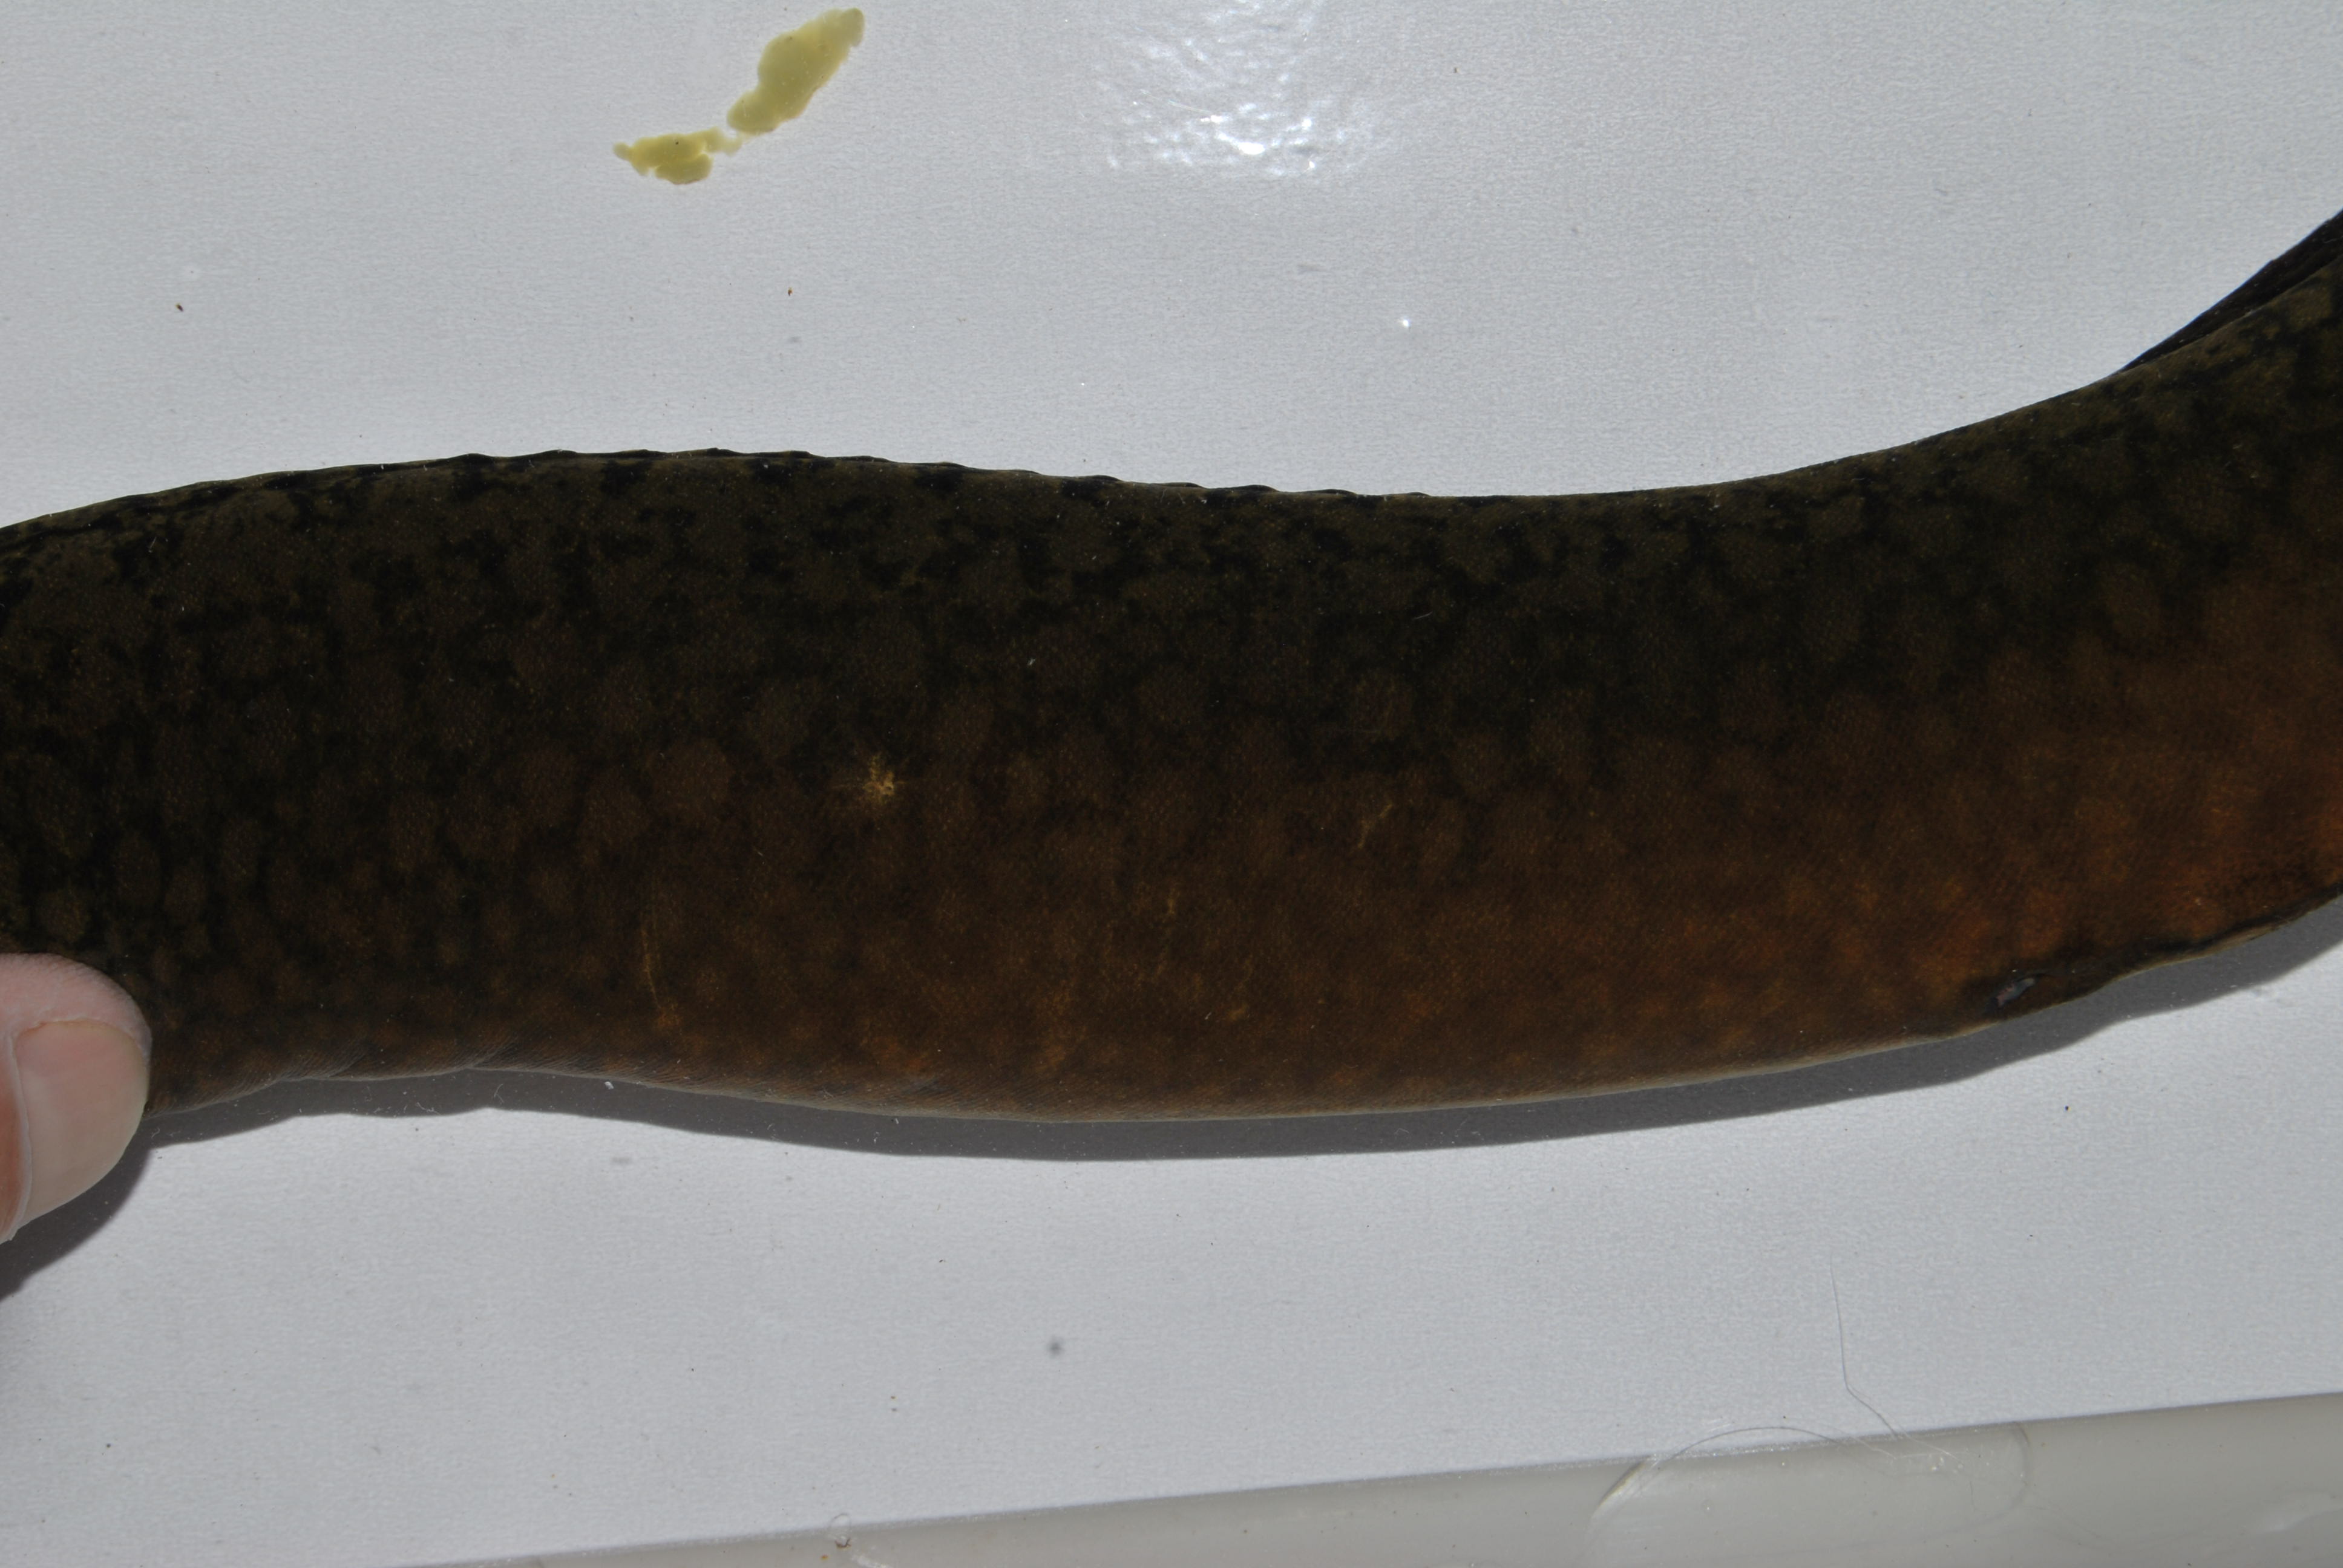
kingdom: Animalia
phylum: Chordata
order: Synbranchiformes
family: Mastacembelidae
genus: Mastacembelus
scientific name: Mastacembelus moorii
